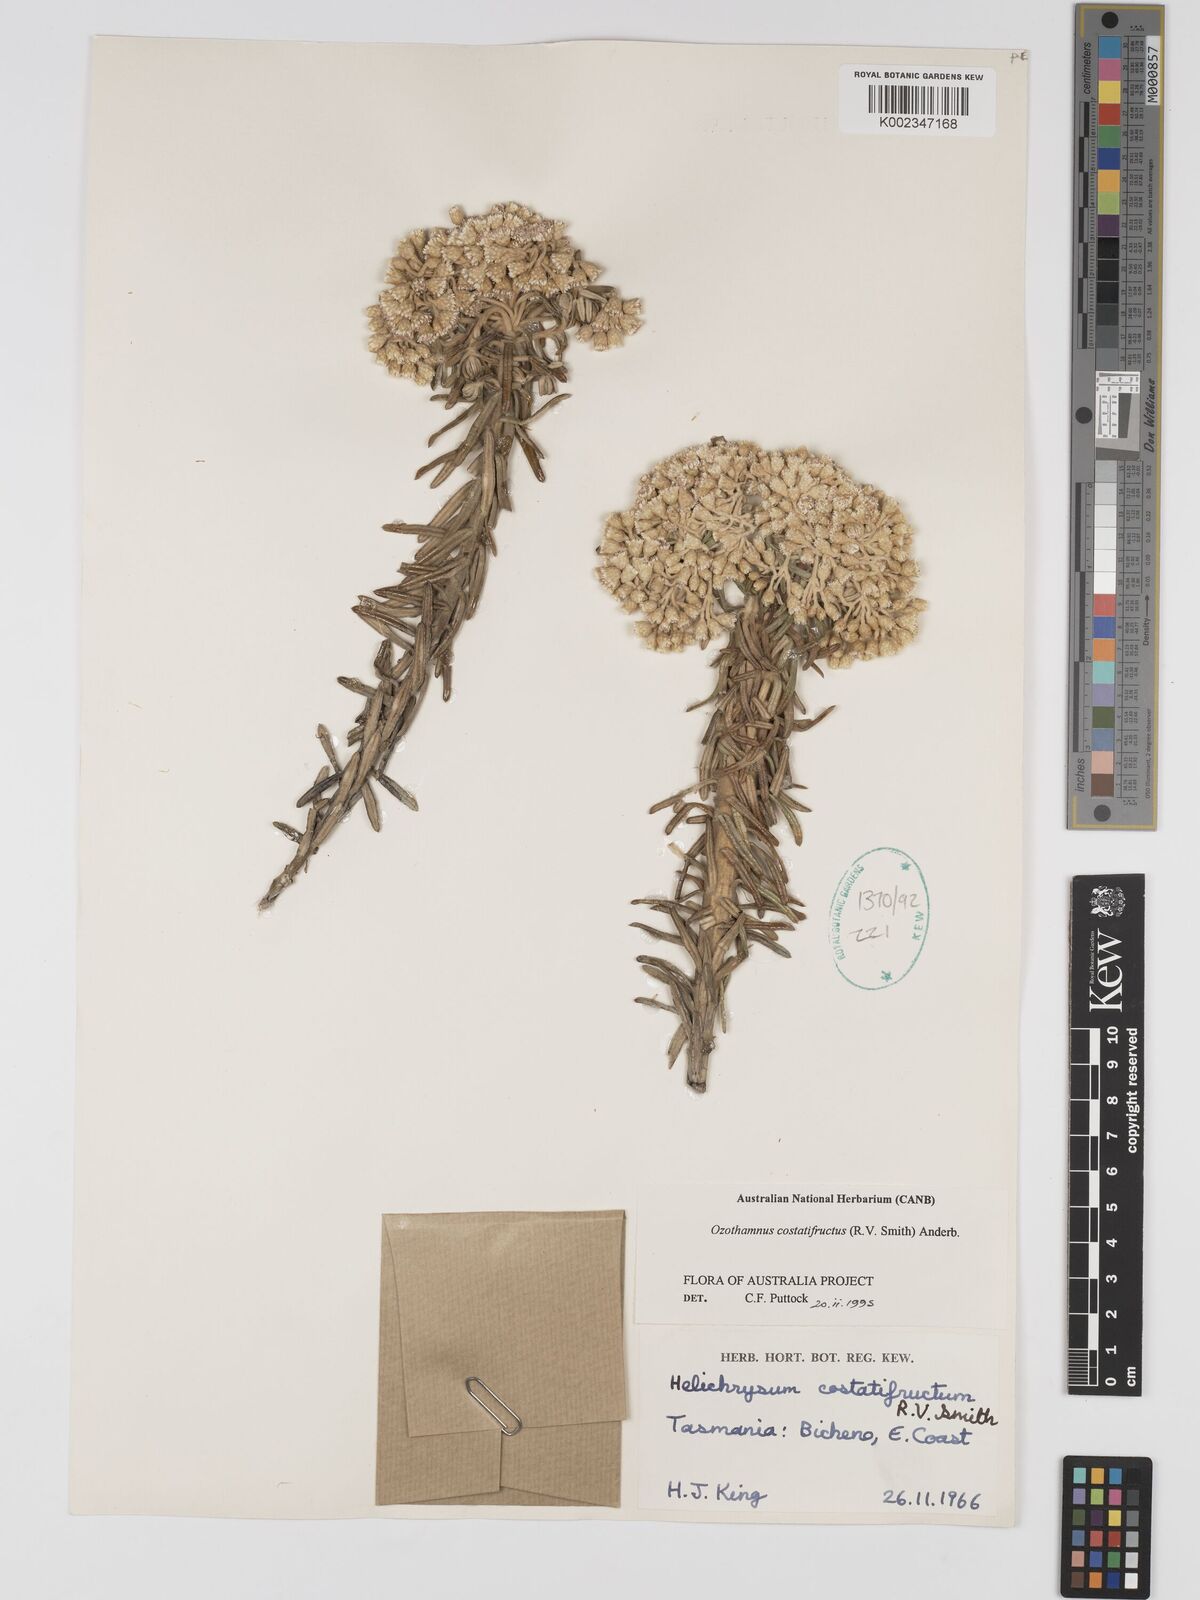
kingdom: Plantae
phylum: Tracheophyta
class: Magnoliopsida
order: Asterales
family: Asteraceae
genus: Ozothamnus
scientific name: Ozothamnus costatifructus
